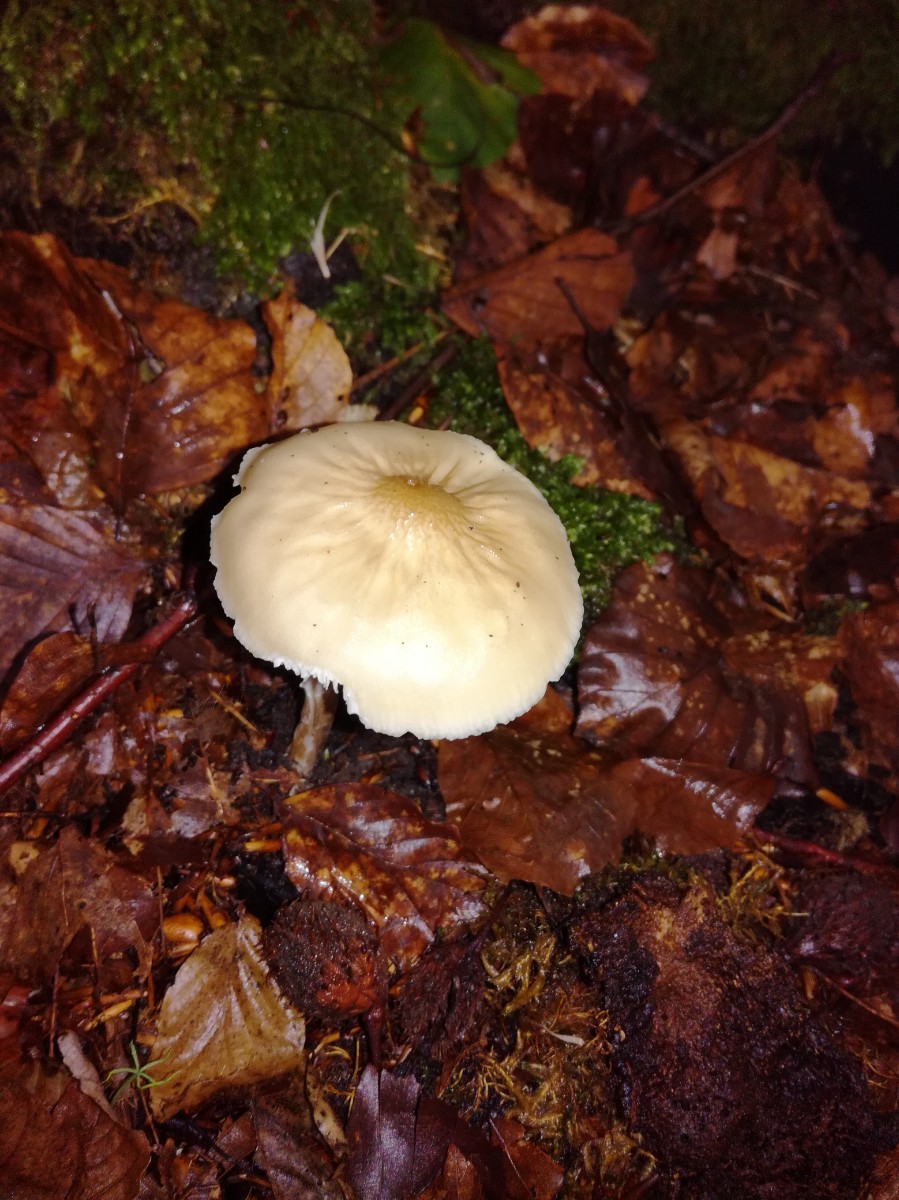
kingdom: Fungi
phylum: Basidiomycota
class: Agaricomycetes
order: Agaricales
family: Physalacriaceae
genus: Hymenopellis
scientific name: Hymenopellis radicata
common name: almindelig pælerodshat
